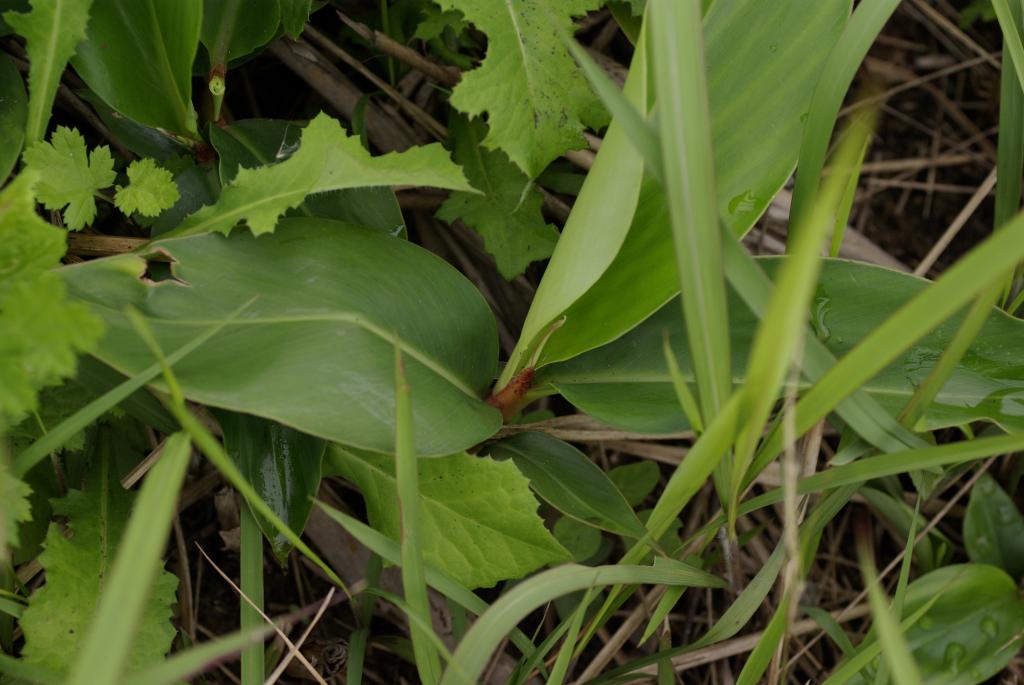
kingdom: Plantae
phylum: Tracheophyta
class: Liliopsida
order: Zingiberales
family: Zingiberaceae
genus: Alpinia
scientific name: Alpinia zerumbet
